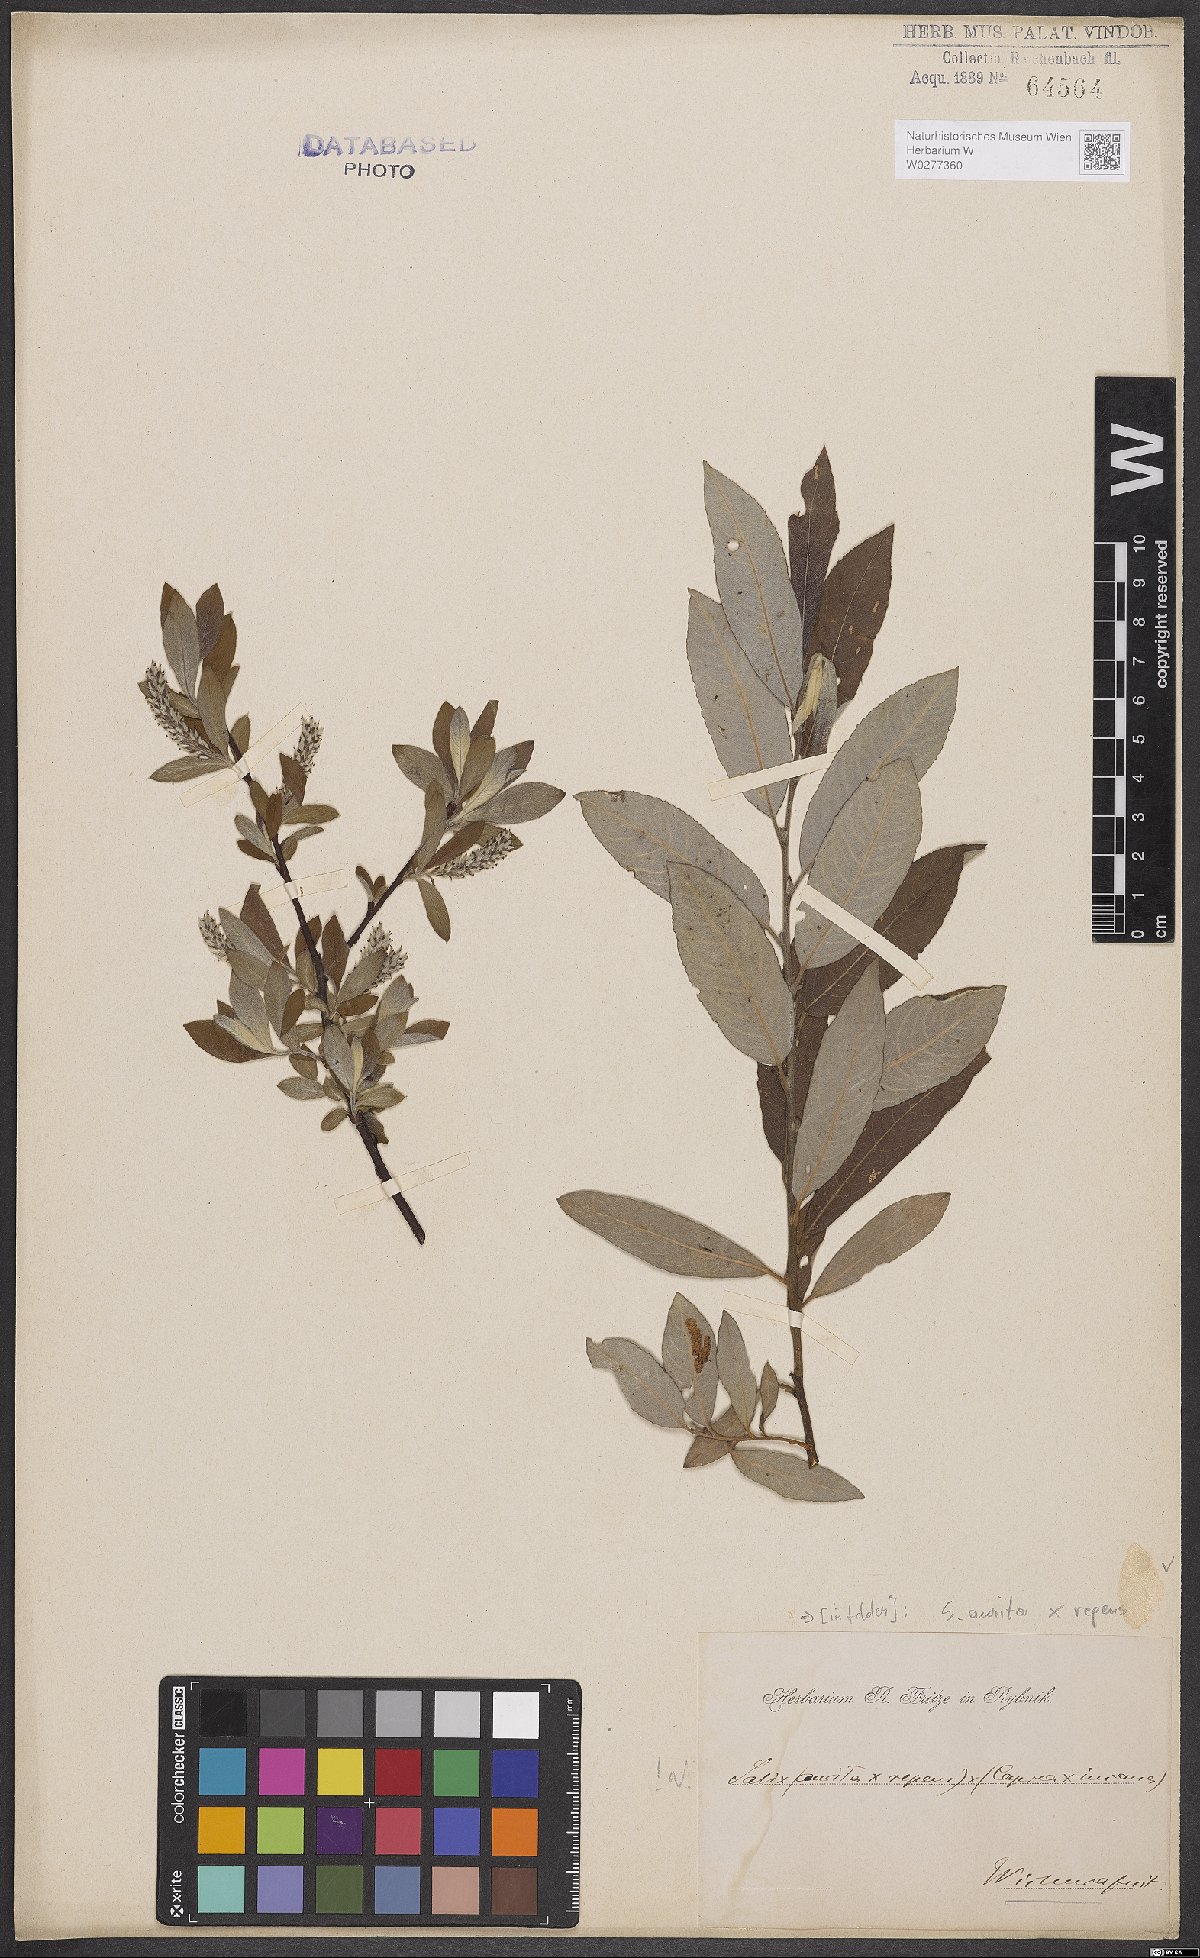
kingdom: Plantae
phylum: Tracheophyta
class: Magnoliopsida
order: Malpighiales
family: Salicaceae
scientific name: Salicaceae
